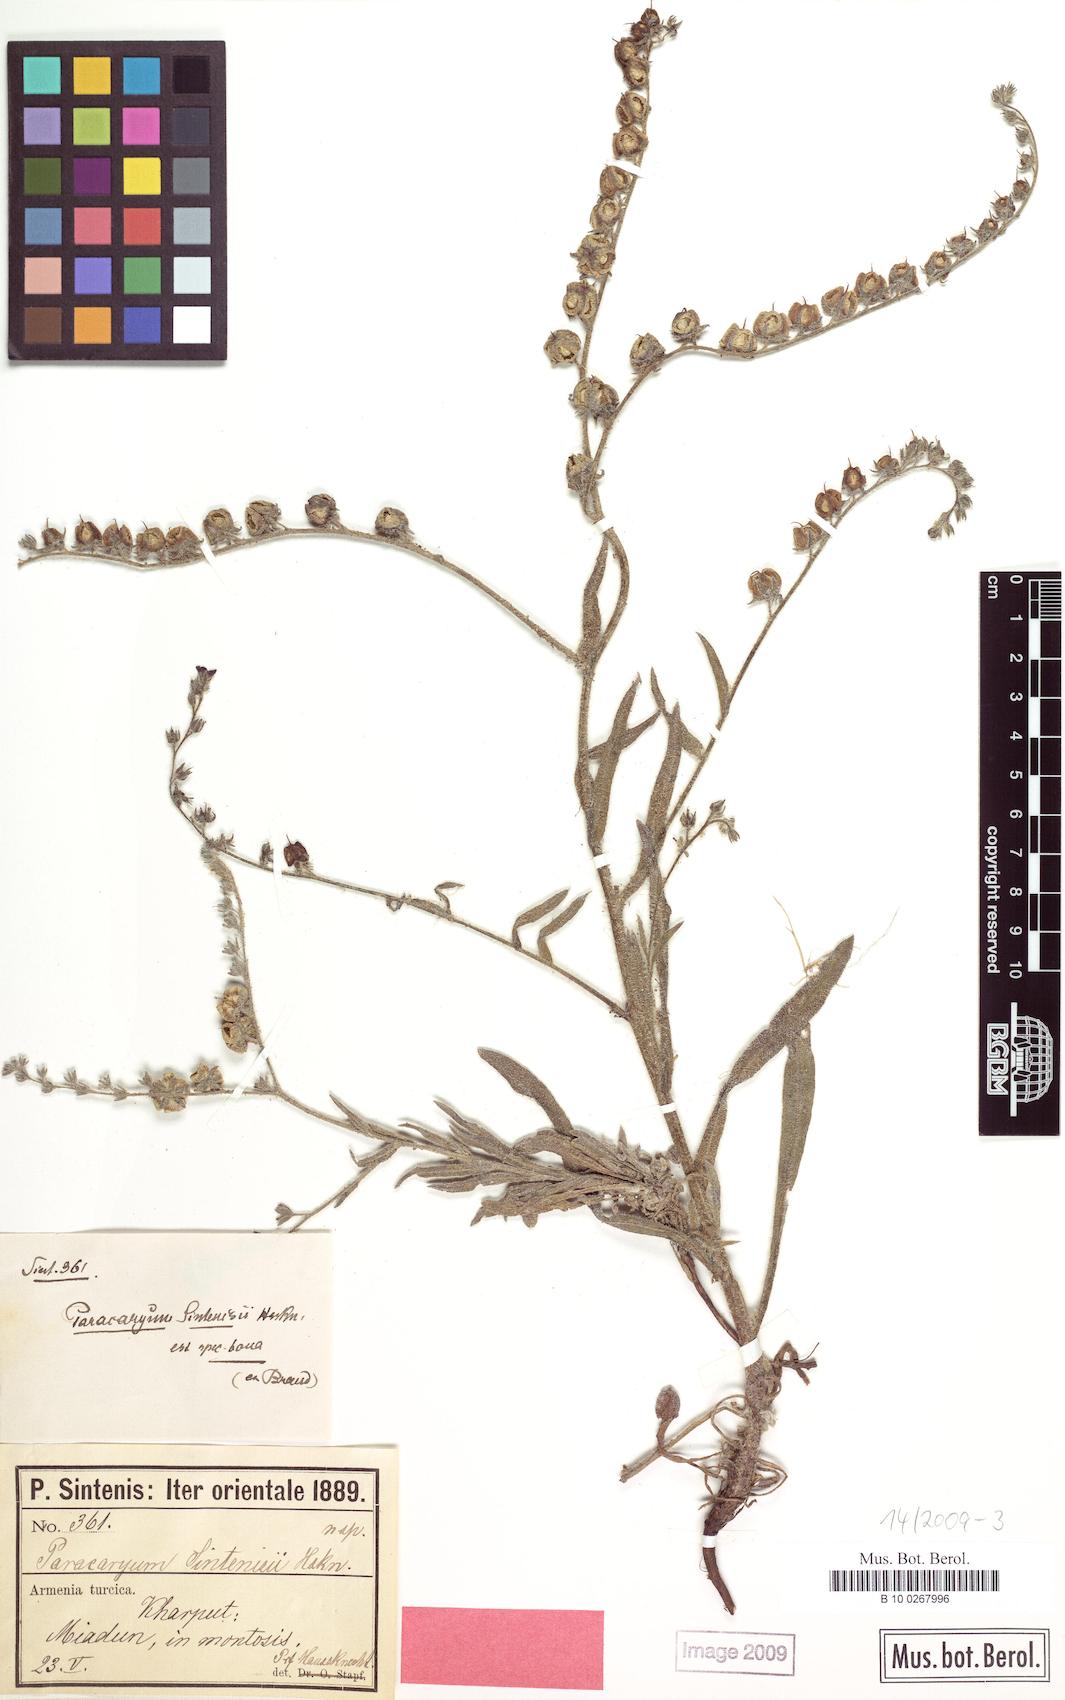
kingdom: Plantae
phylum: Tracheophyta
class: Magnoliopsida
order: Boraginales
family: Boraginaceae
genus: Paracaryum
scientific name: Paracaryum sintenisii
